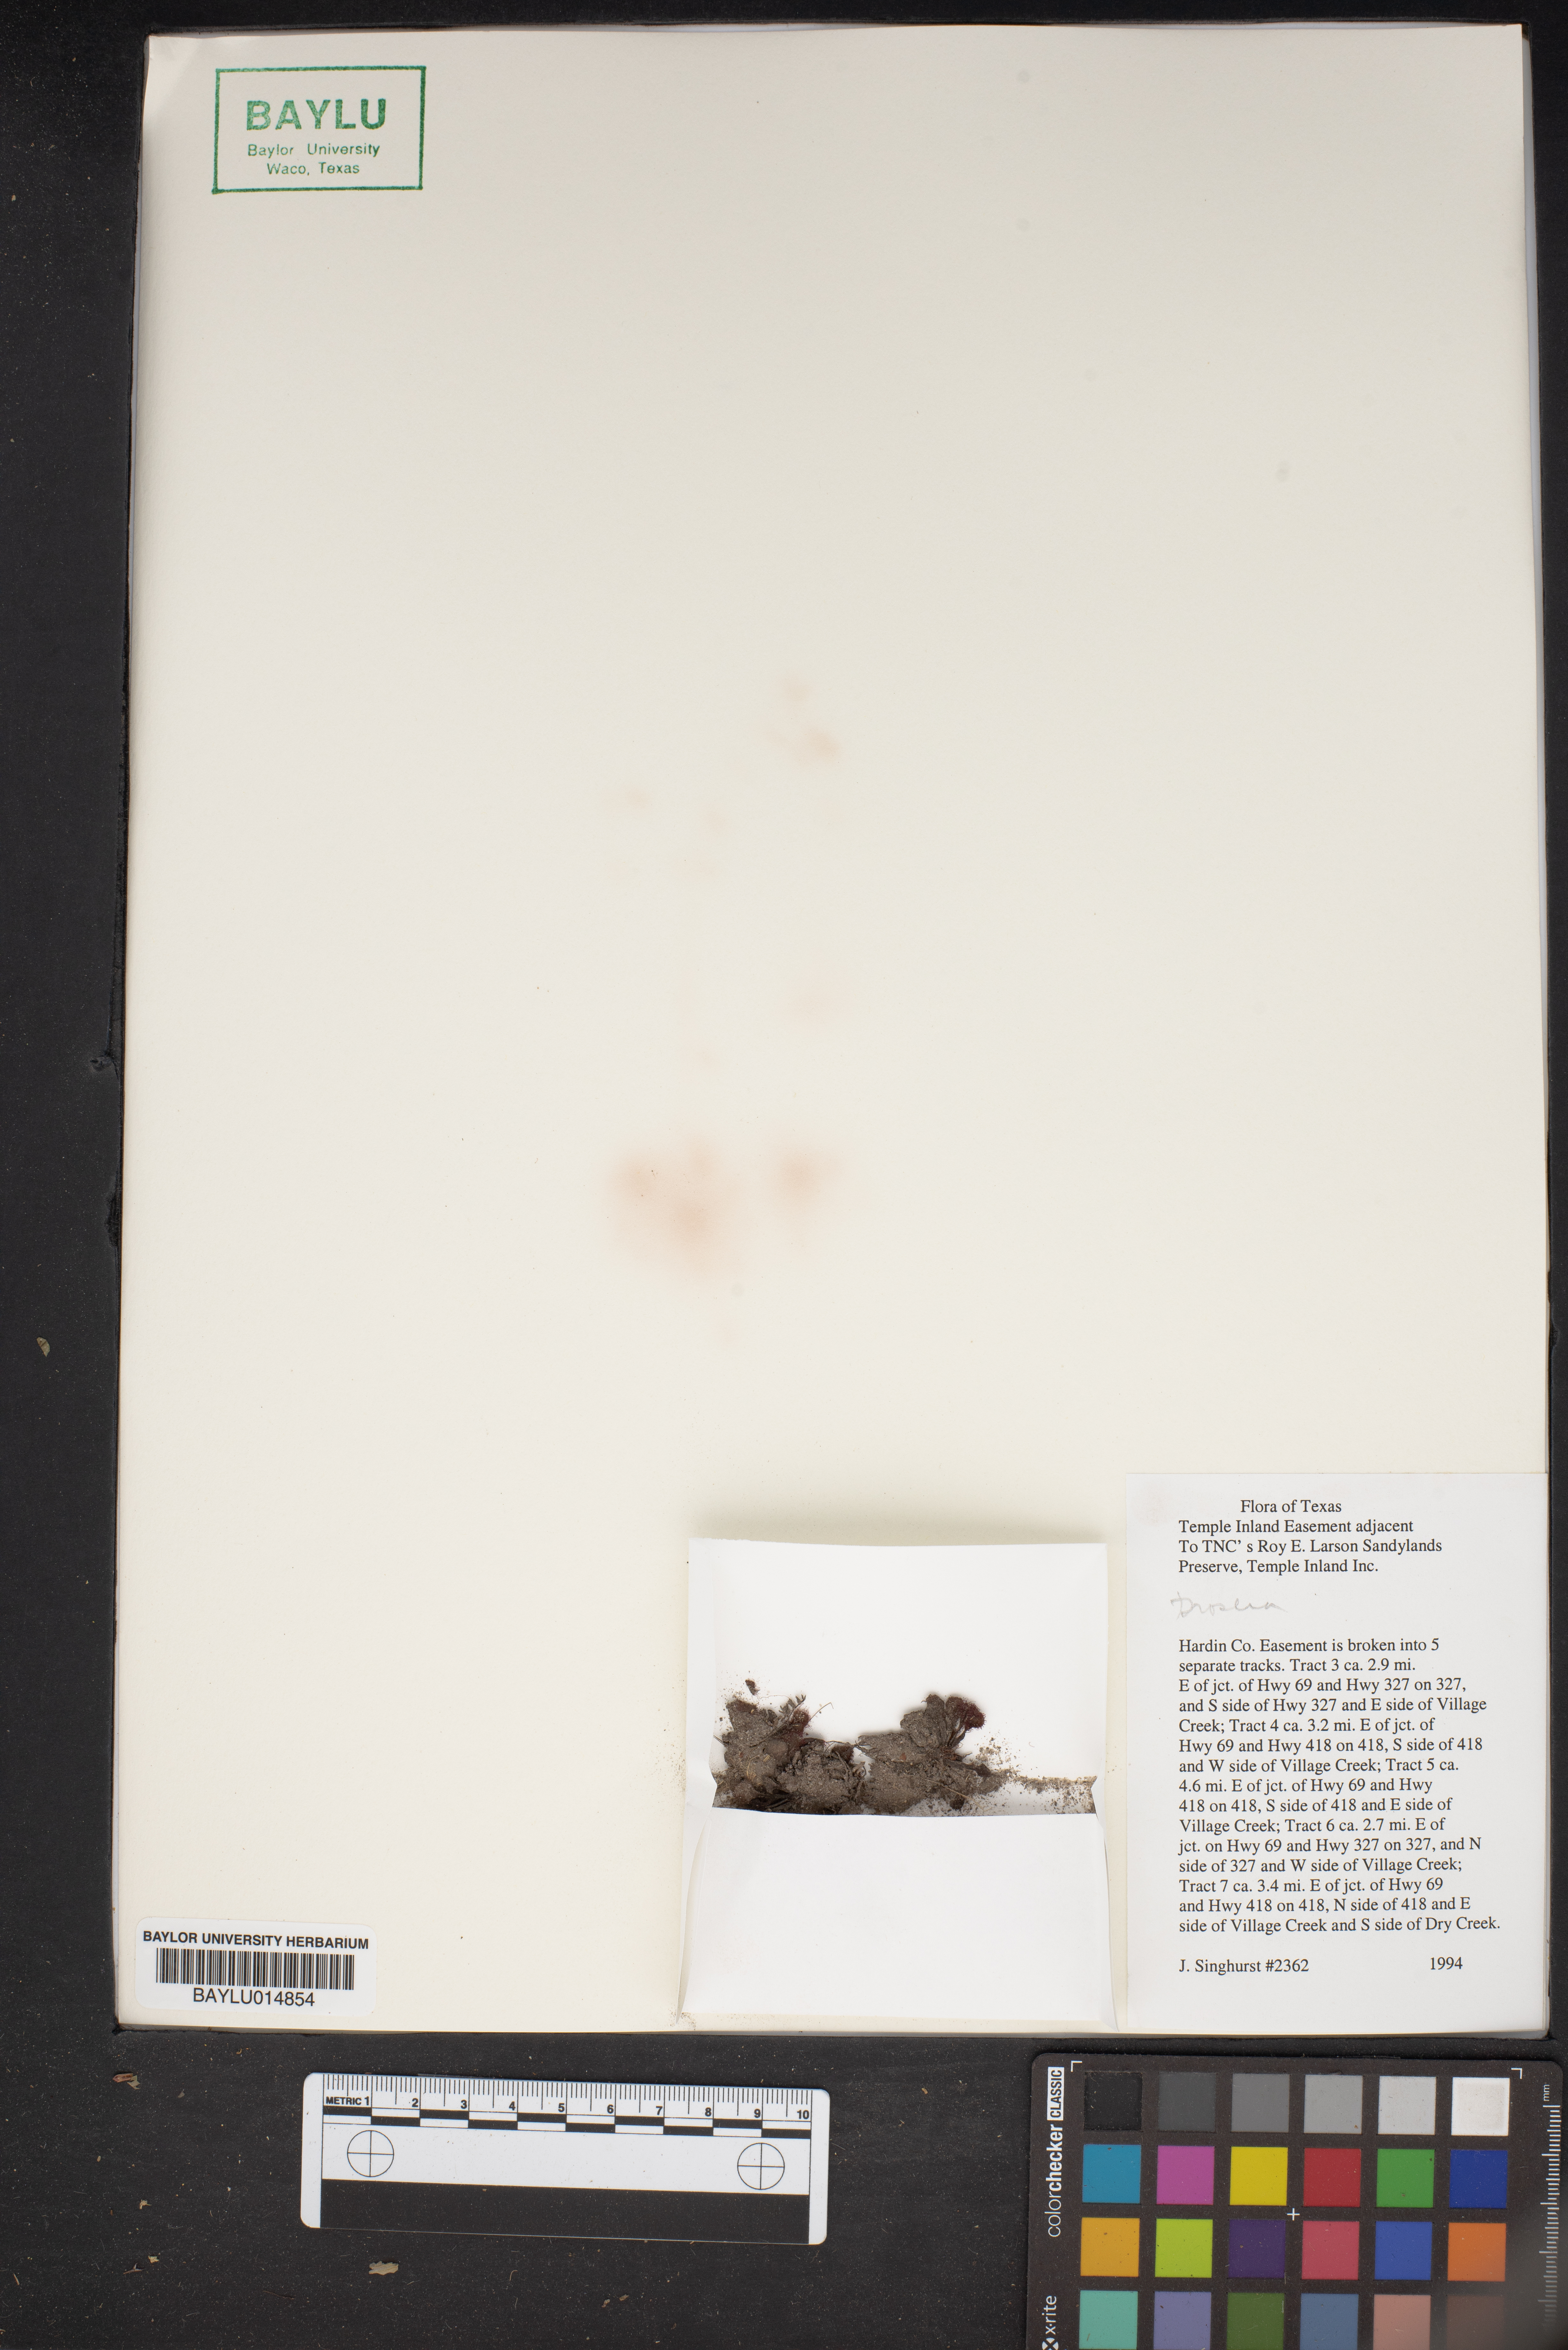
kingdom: Plantae
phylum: Tracheophyta
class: Magnoliopsida
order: Caryophyllales
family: Droseraceae
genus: Drosera
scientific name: Drosera
